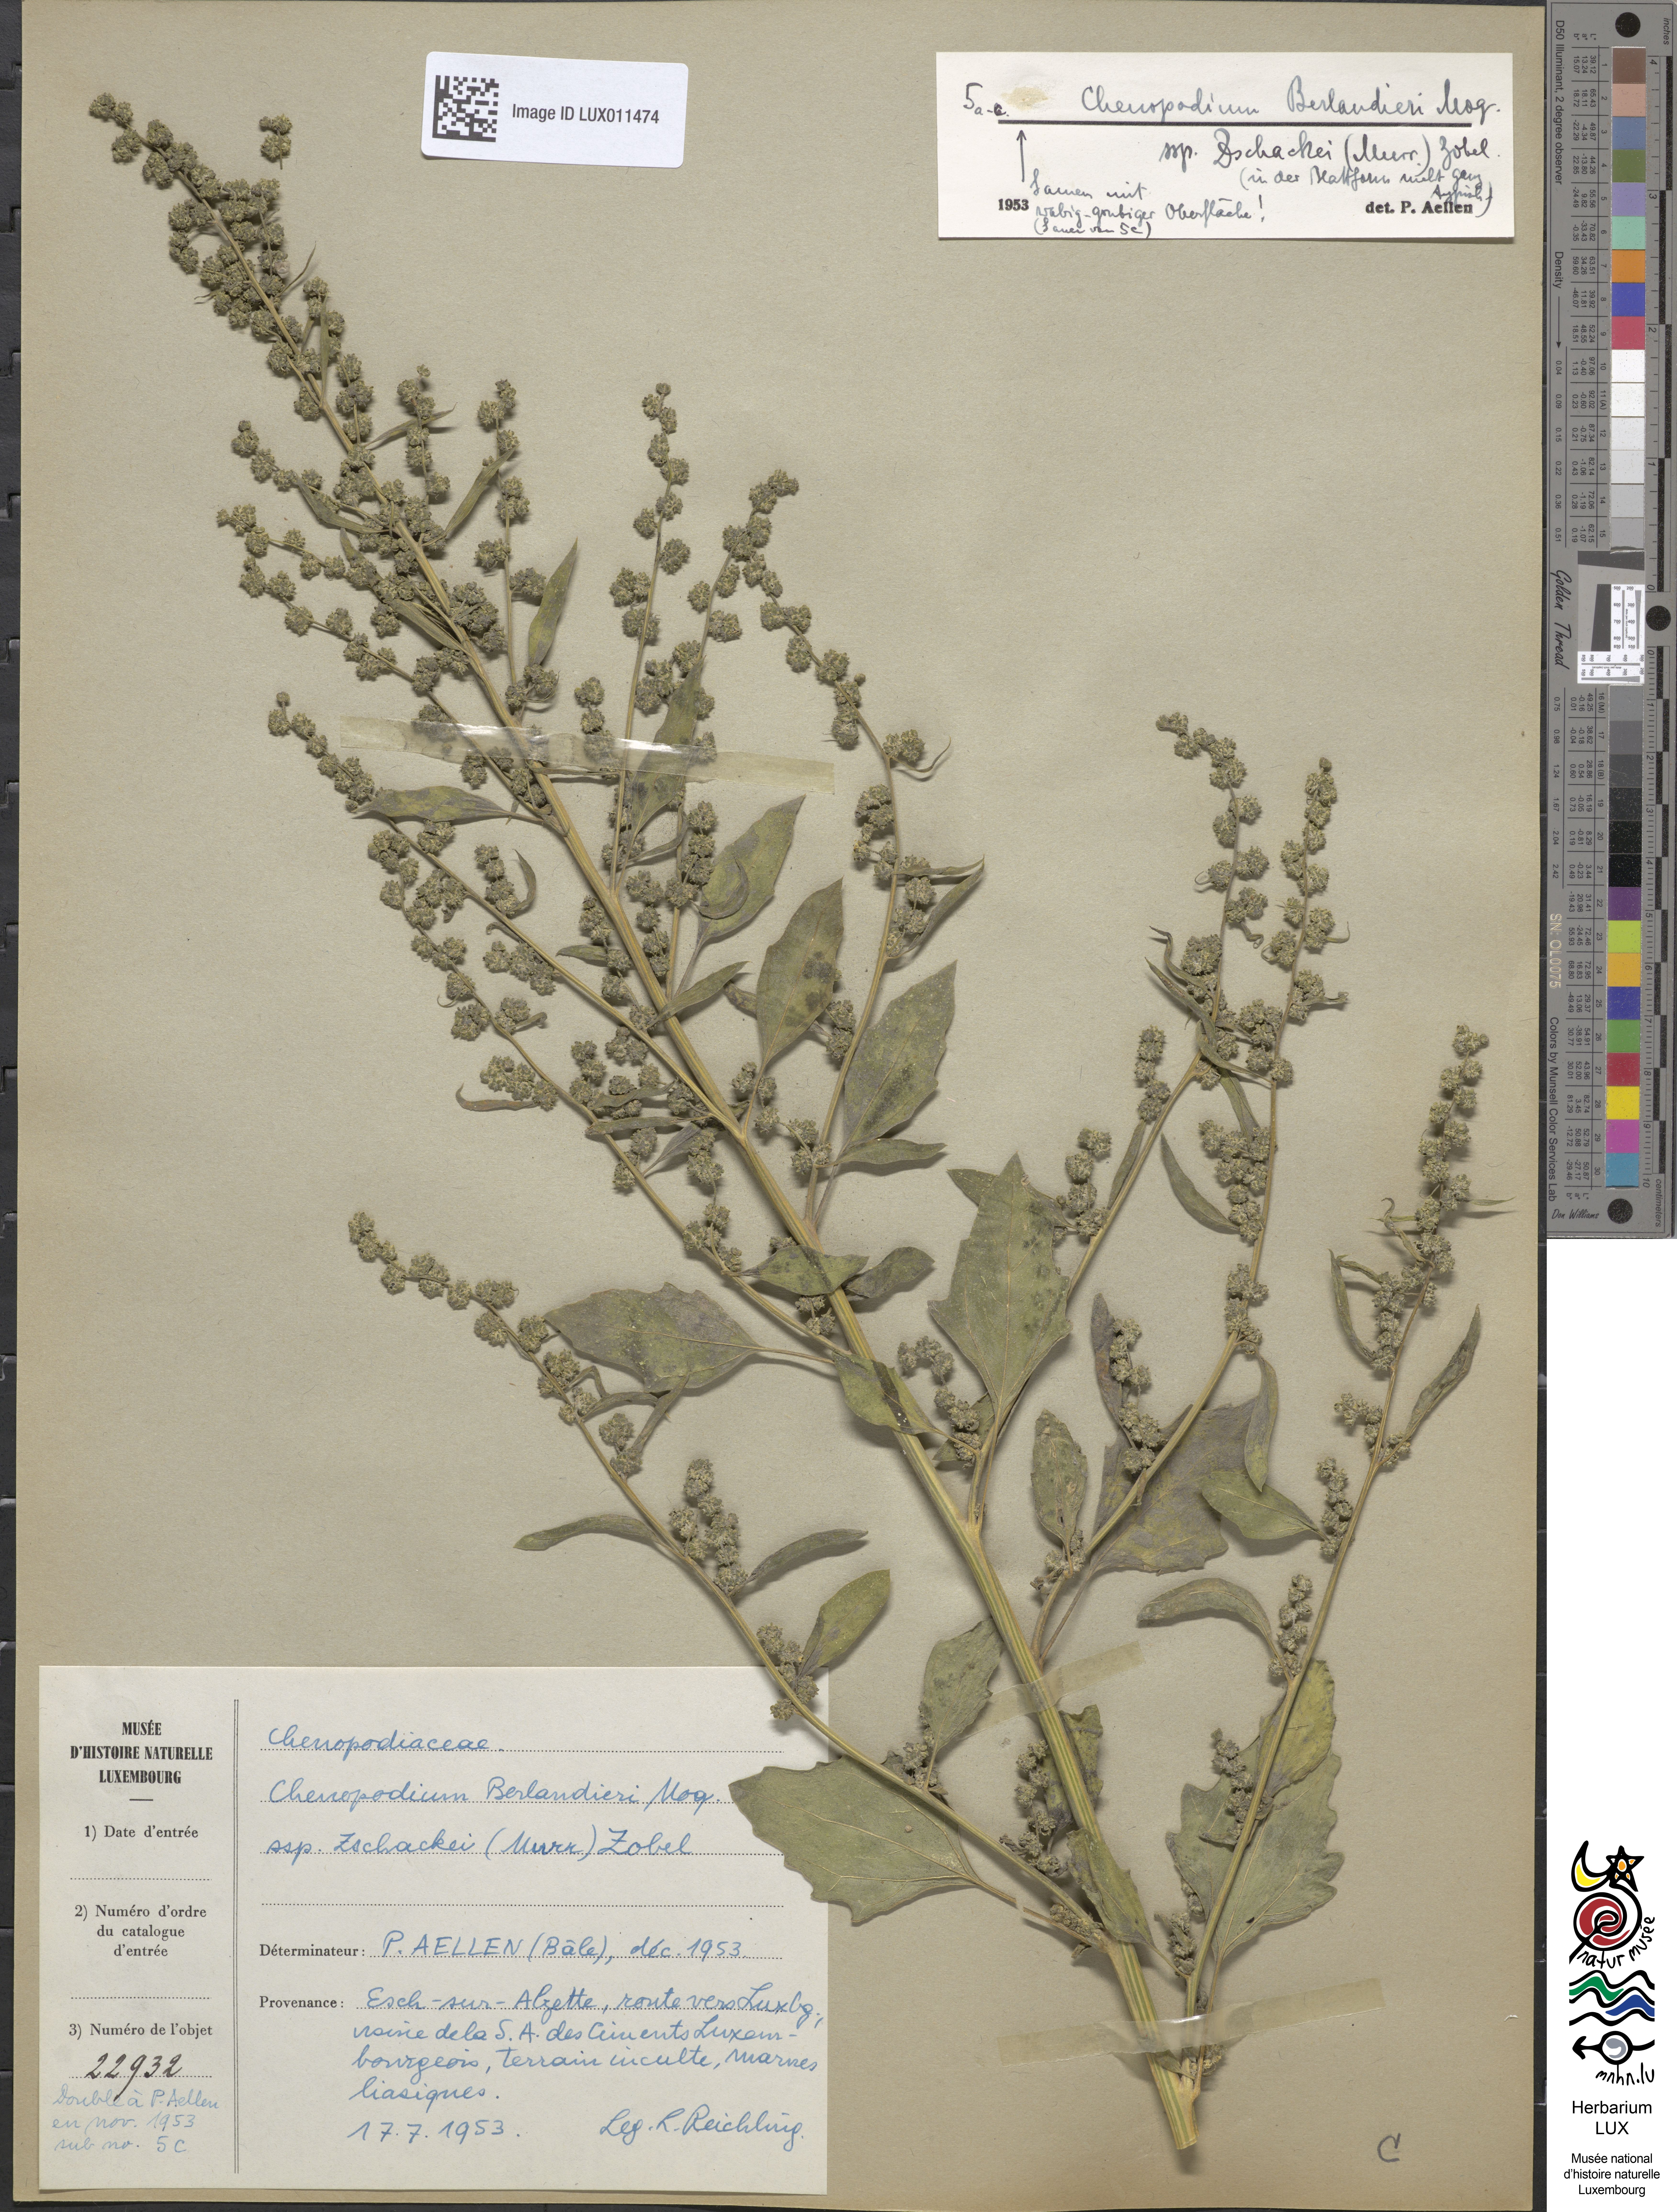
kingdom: Plantae
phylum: Tracheophyta
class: Magnoliopsida
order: Caryophyllales
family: Amaranthaceae
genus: Chenopodium
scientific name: Chenopodium berlandieri
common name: Pit-seed goosefoot
